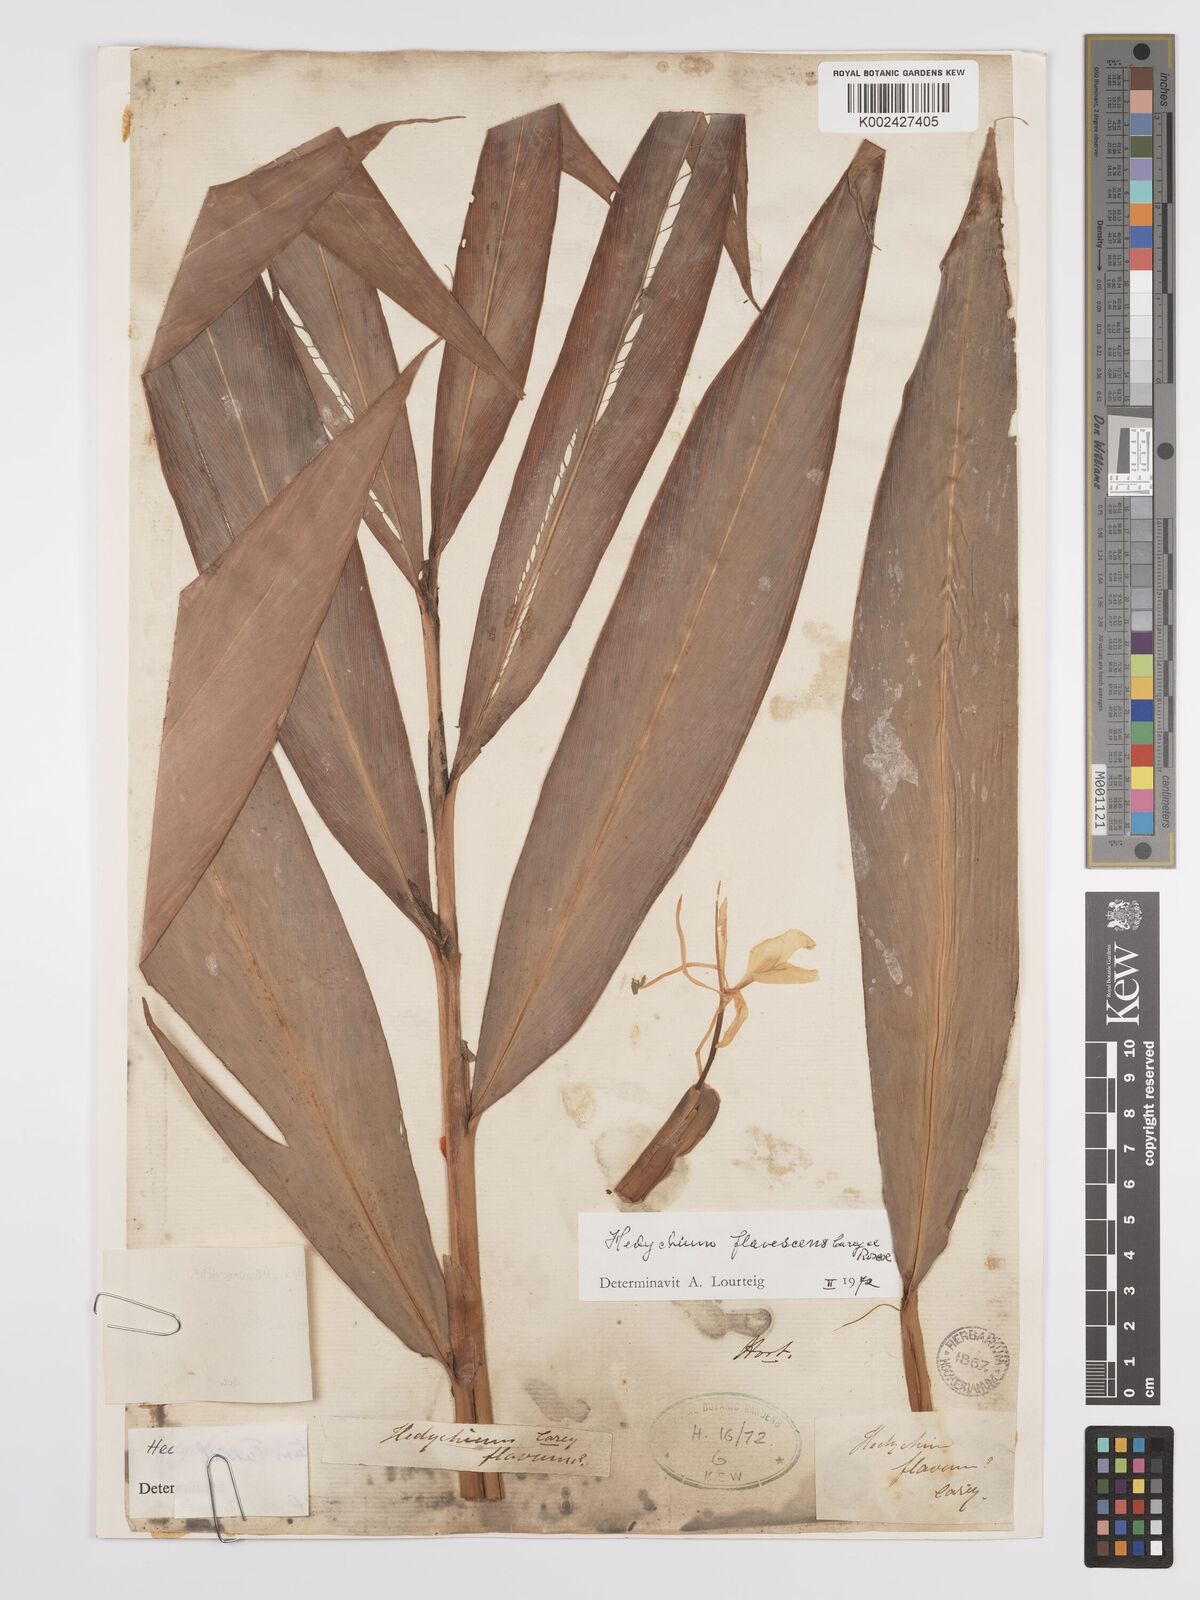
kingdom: Plantae
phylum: Tracheophyta
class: Liliopsida
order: Zingiberales
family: Zingiberaceae
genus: Hedychium
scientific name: Hedychium flavescens
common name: Yellow ginger
